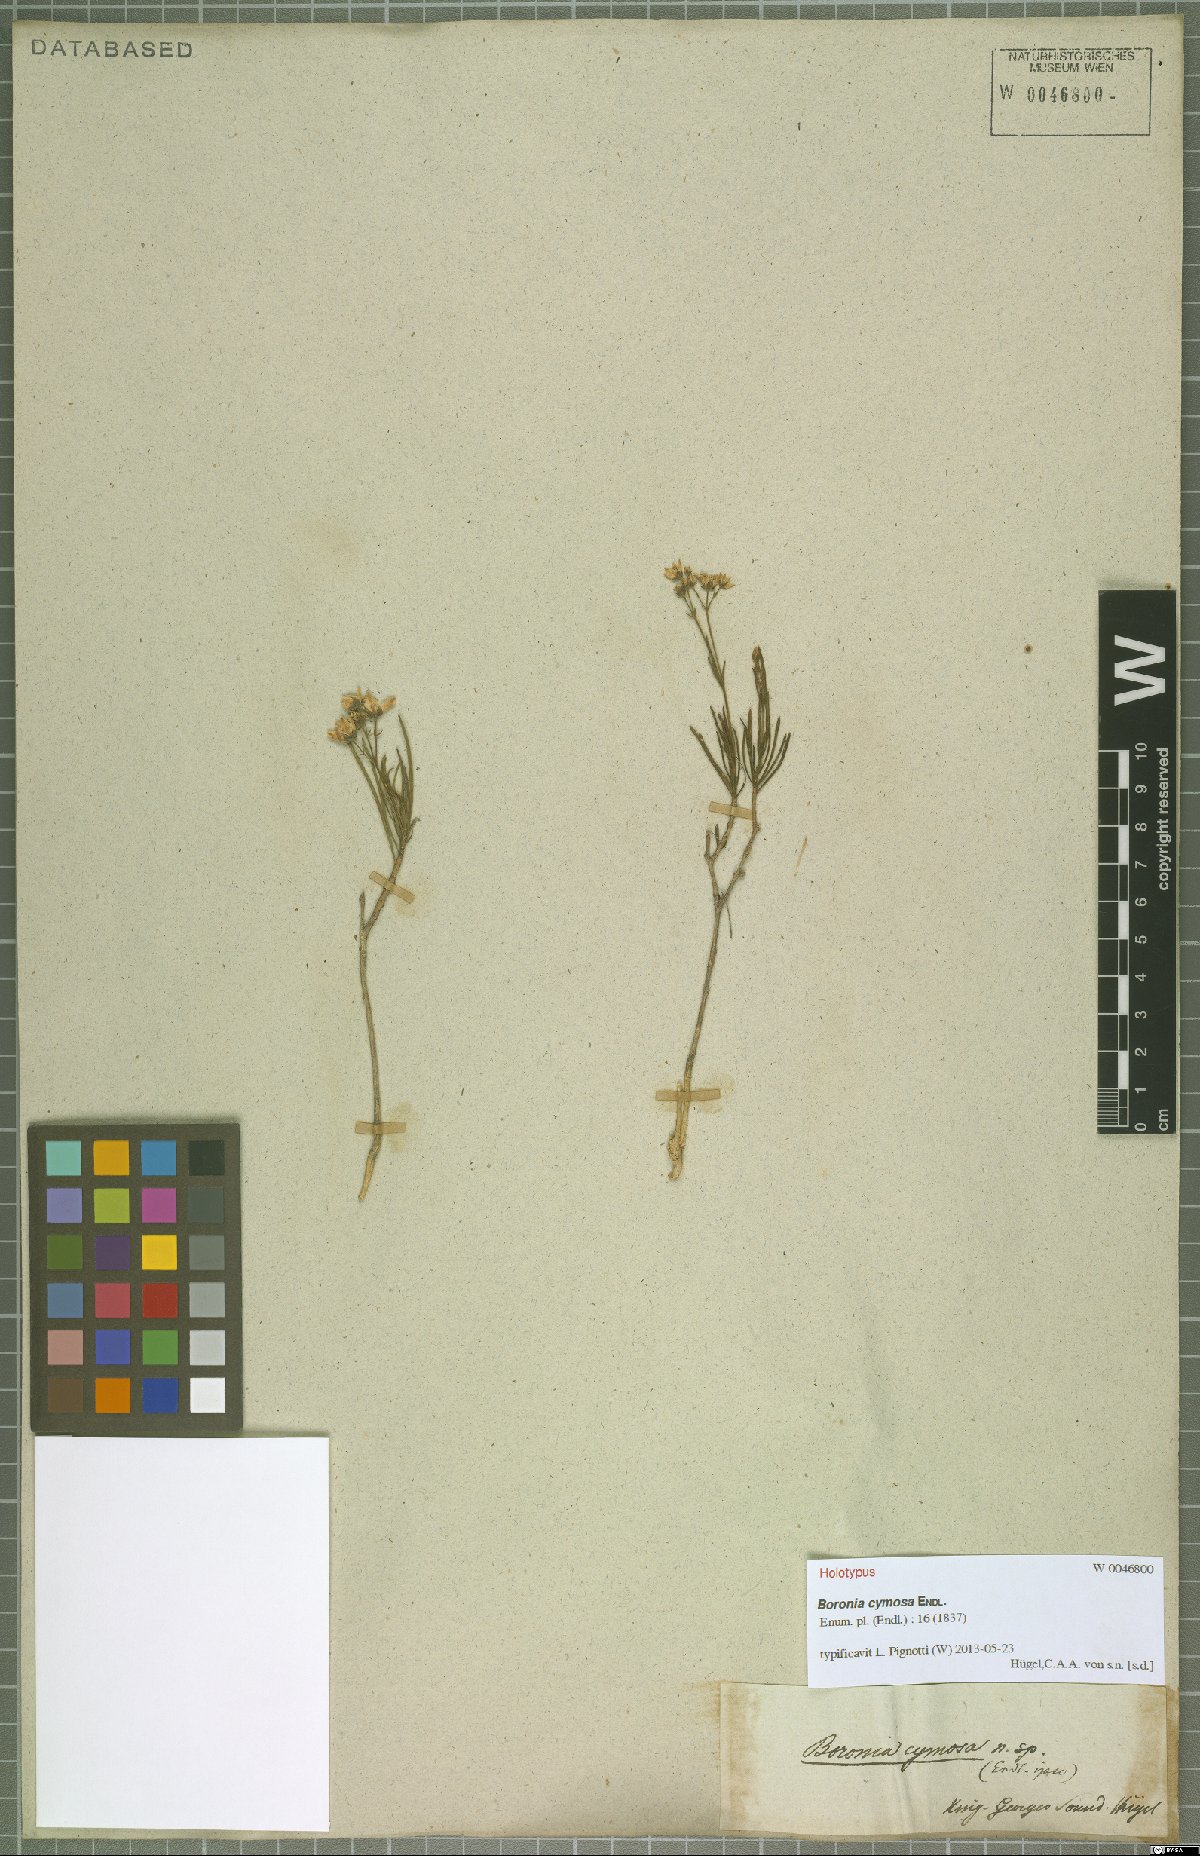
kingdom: Plantae
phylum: Tracheophyta
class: Magnoliopsida
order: Sapindales
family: Rutaceae
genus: Boronia
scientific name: Boronia cymosa
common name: Granite boronia
